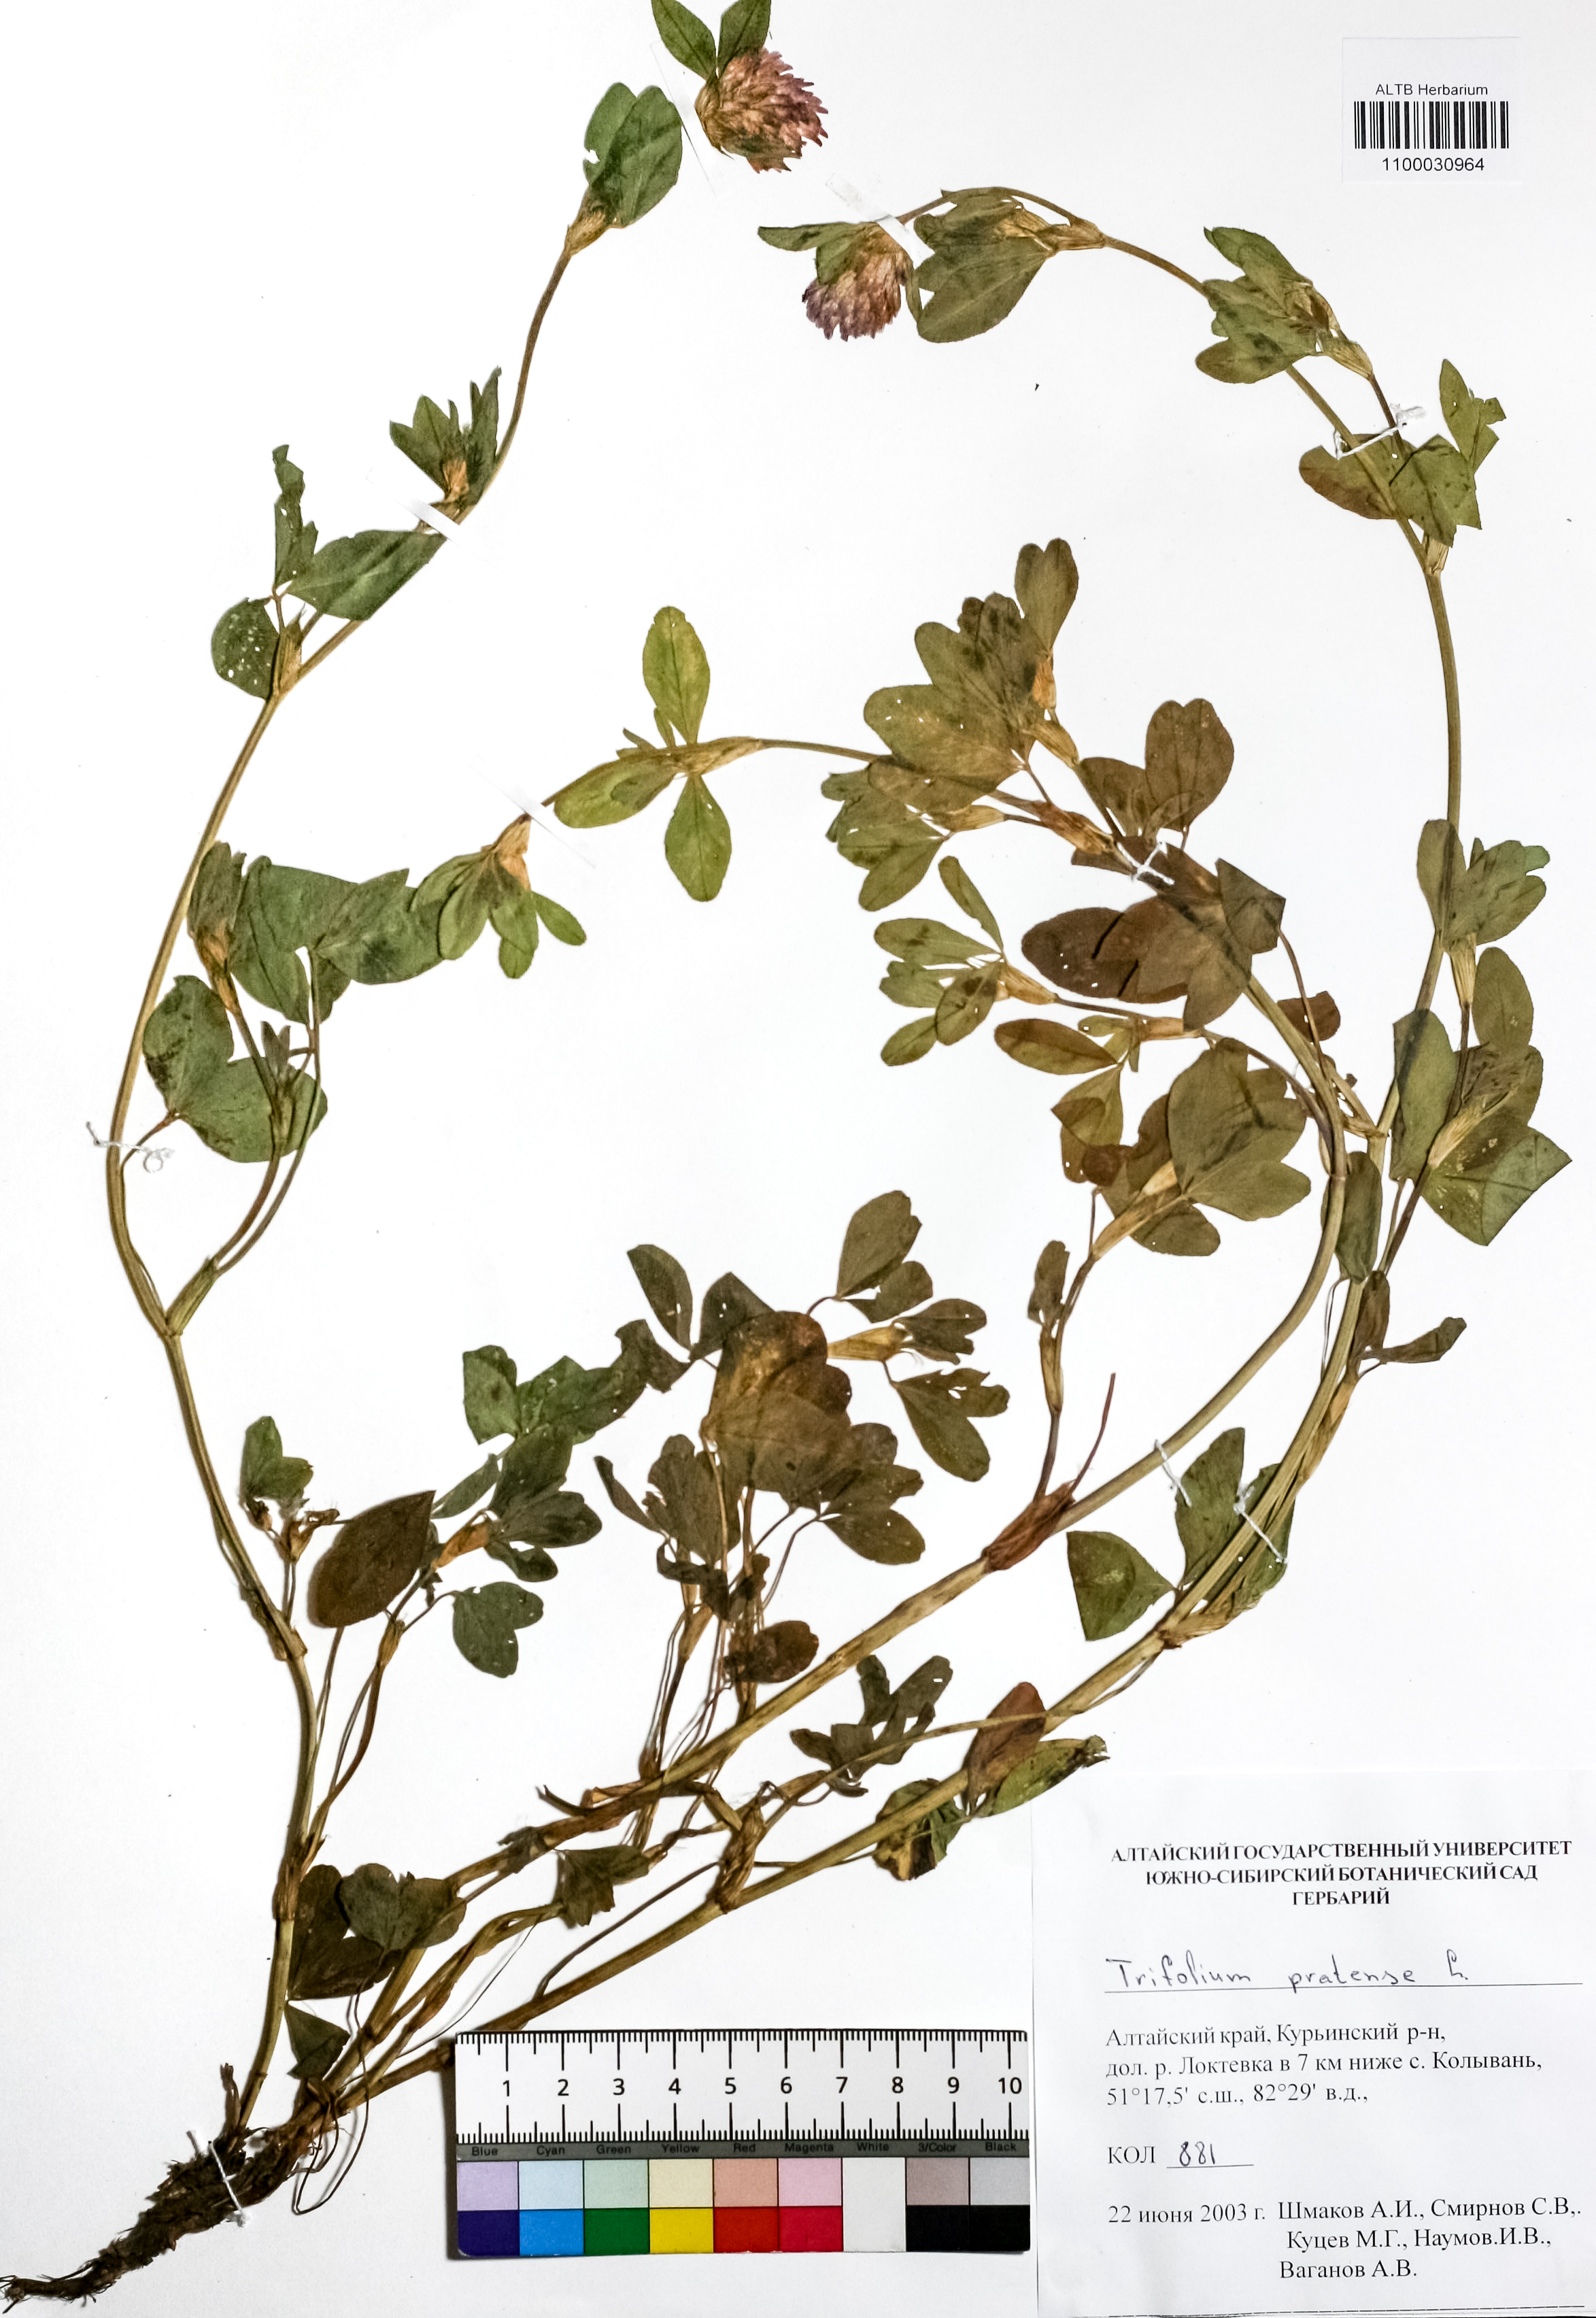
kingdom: Plantae
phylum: Tracheophyta
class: Magnoliopsida
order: Fabales
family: Fabaceae
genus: Trifolium
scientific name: Trifolium pratense
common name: Red clover
